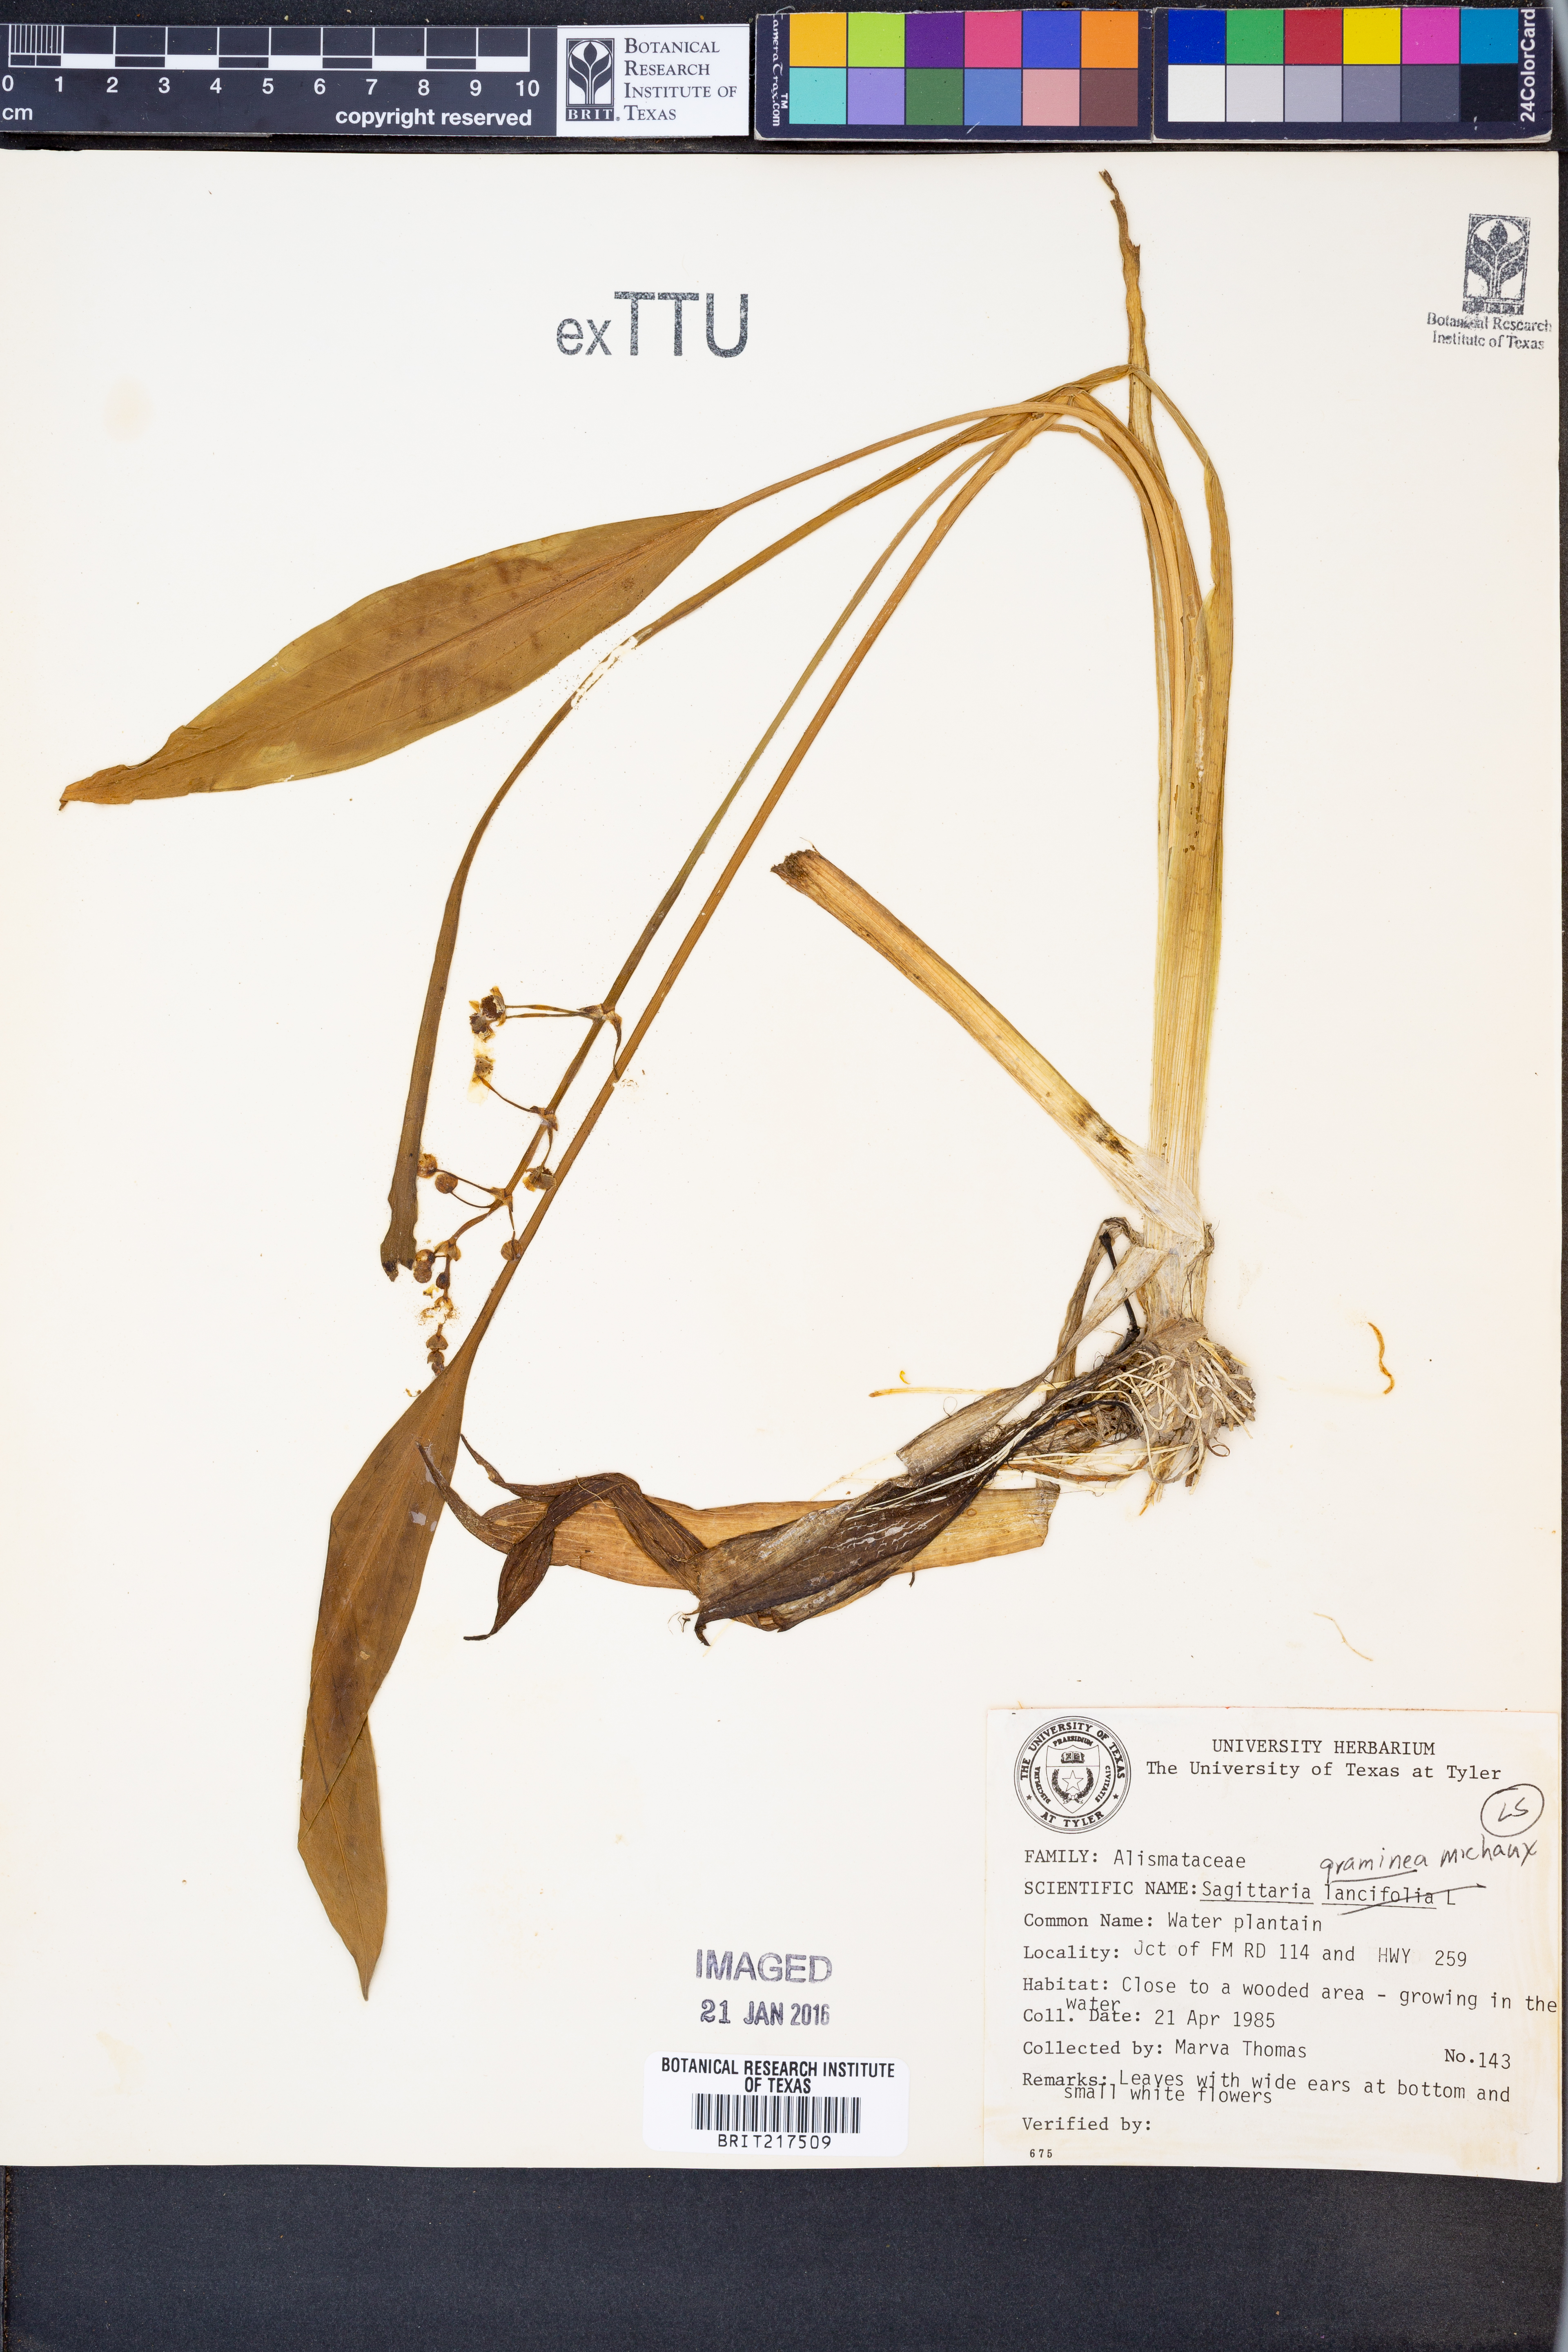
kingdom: Plantae
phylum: Tracheophyta
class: Liliopsida
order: Alismatales
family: Alismataceae
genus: Sagittaria
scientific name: Sagittaria graminea
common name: Grass-leaved arrowhead
